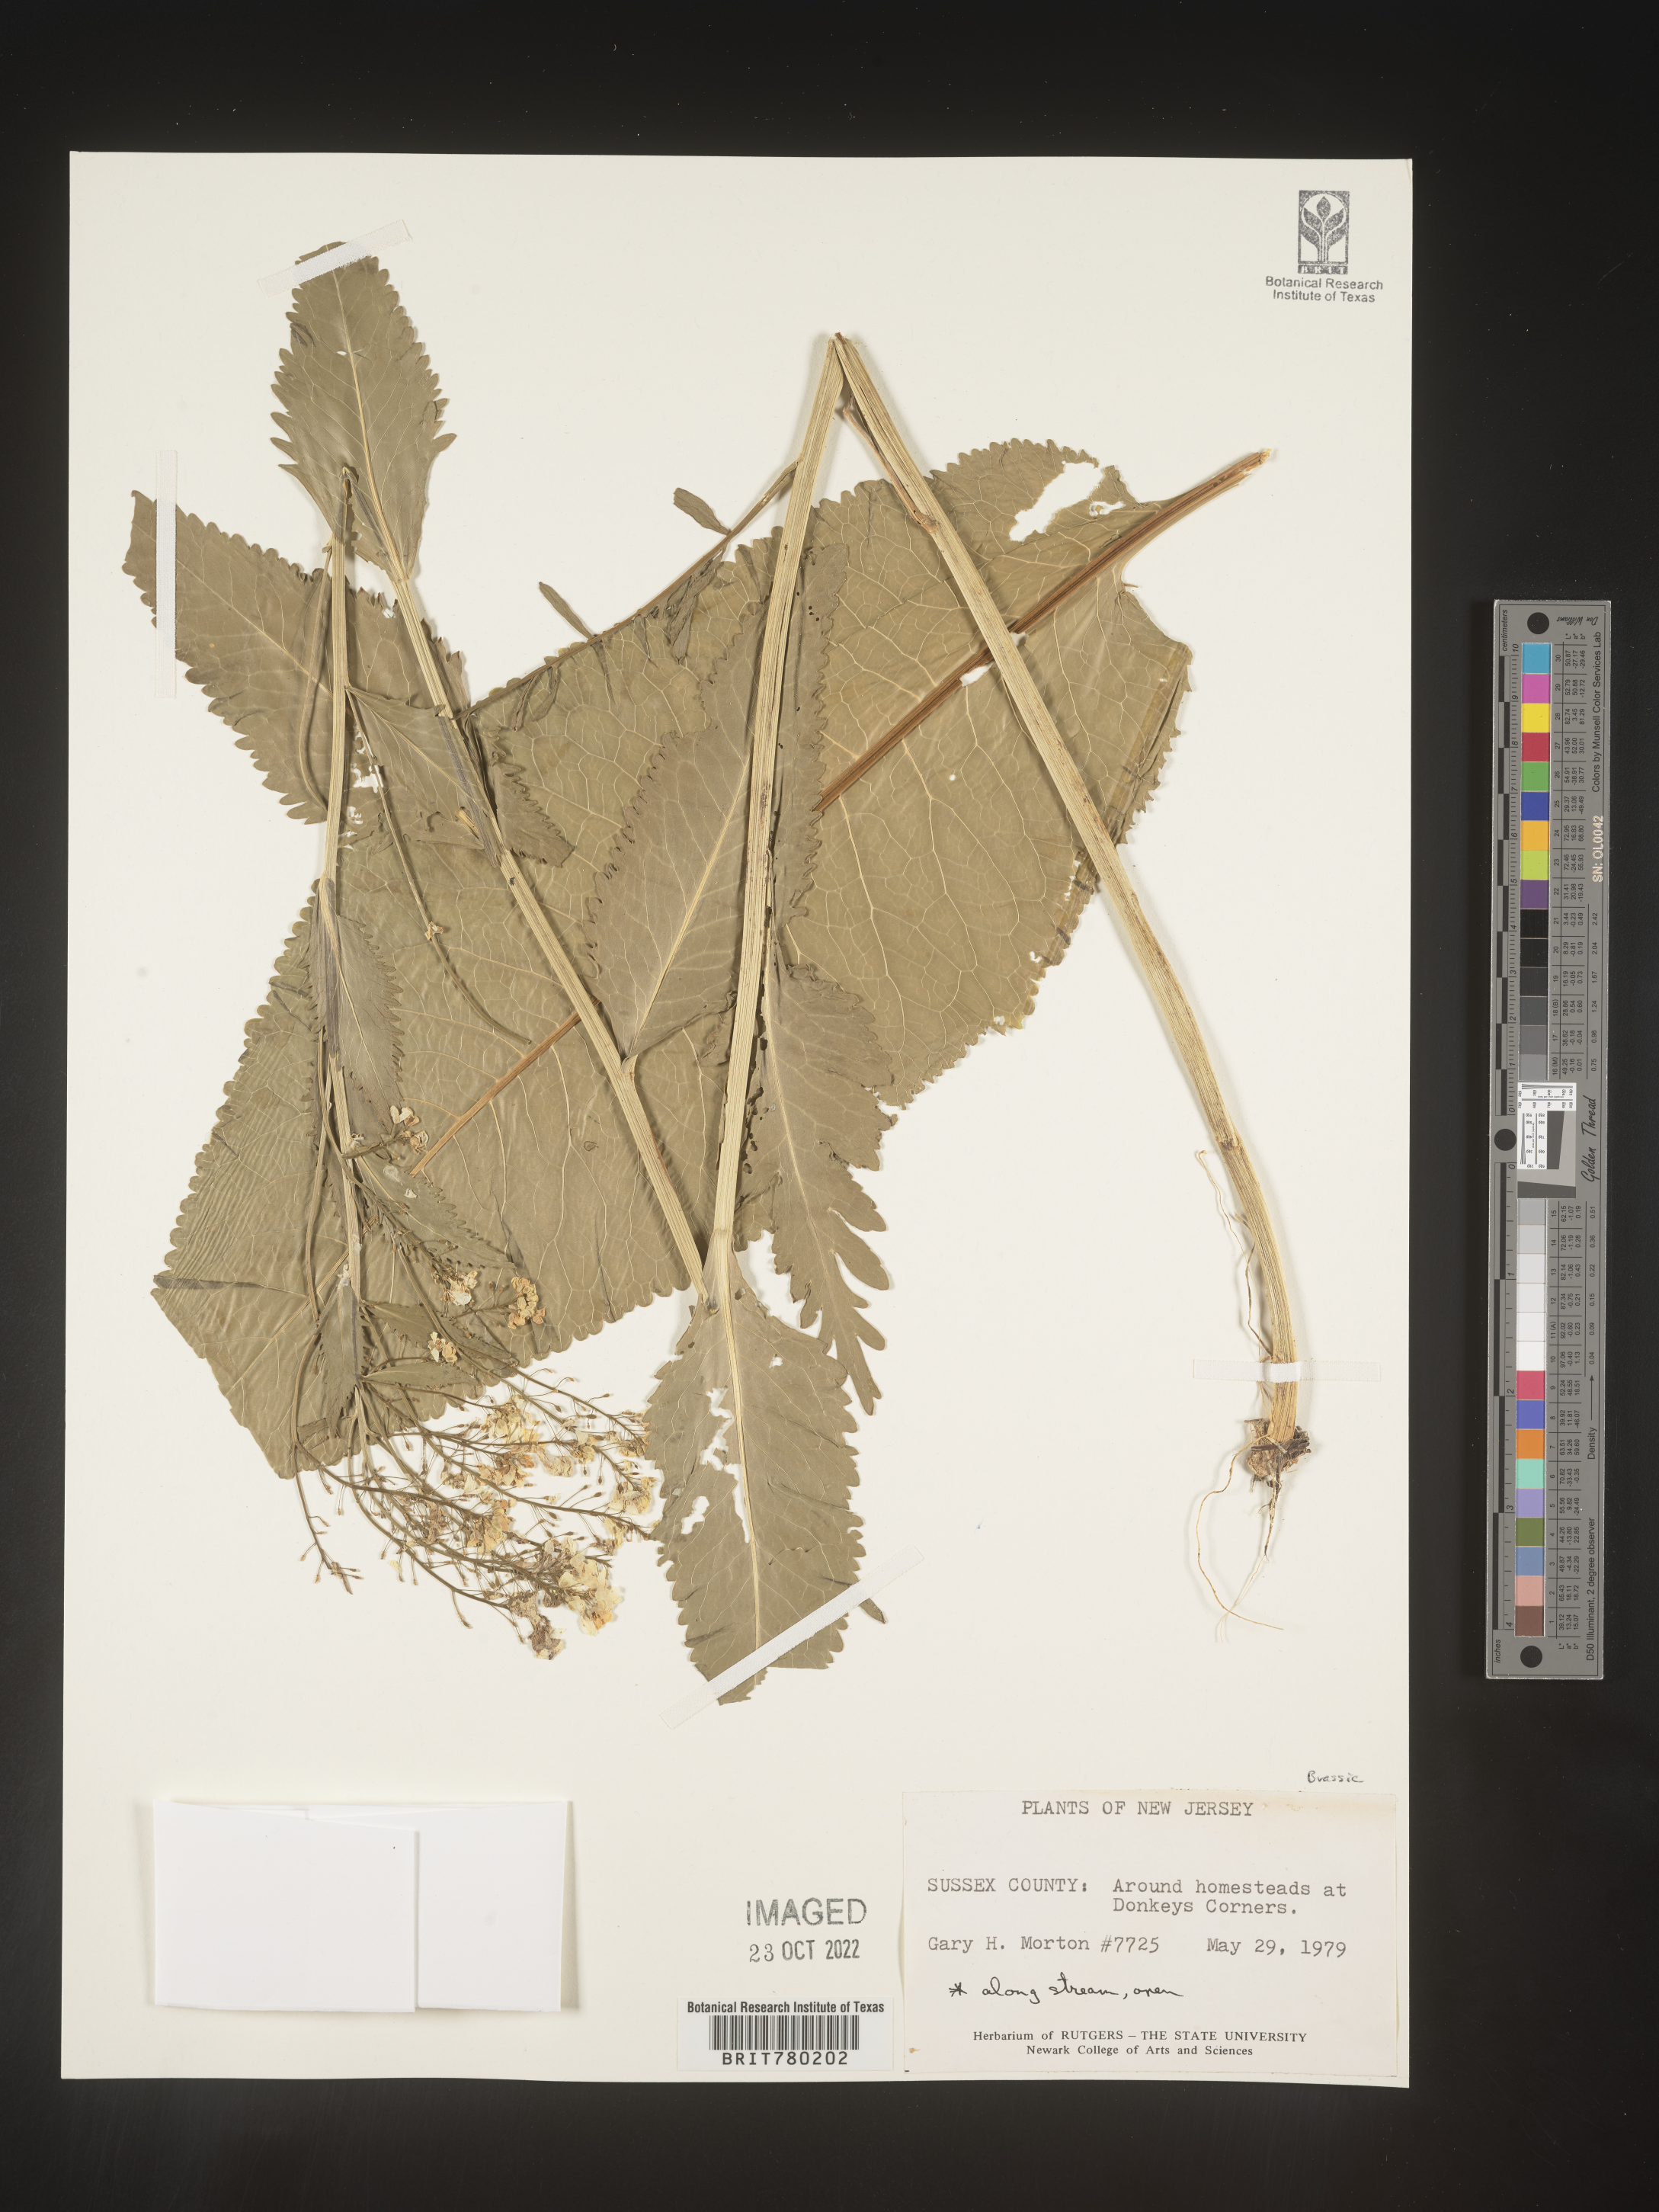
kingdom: Plantae
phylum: Tracheophyta
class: Magnoliopsida
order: Brassicales
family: Brassicaceae
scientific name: Brassicaceae
